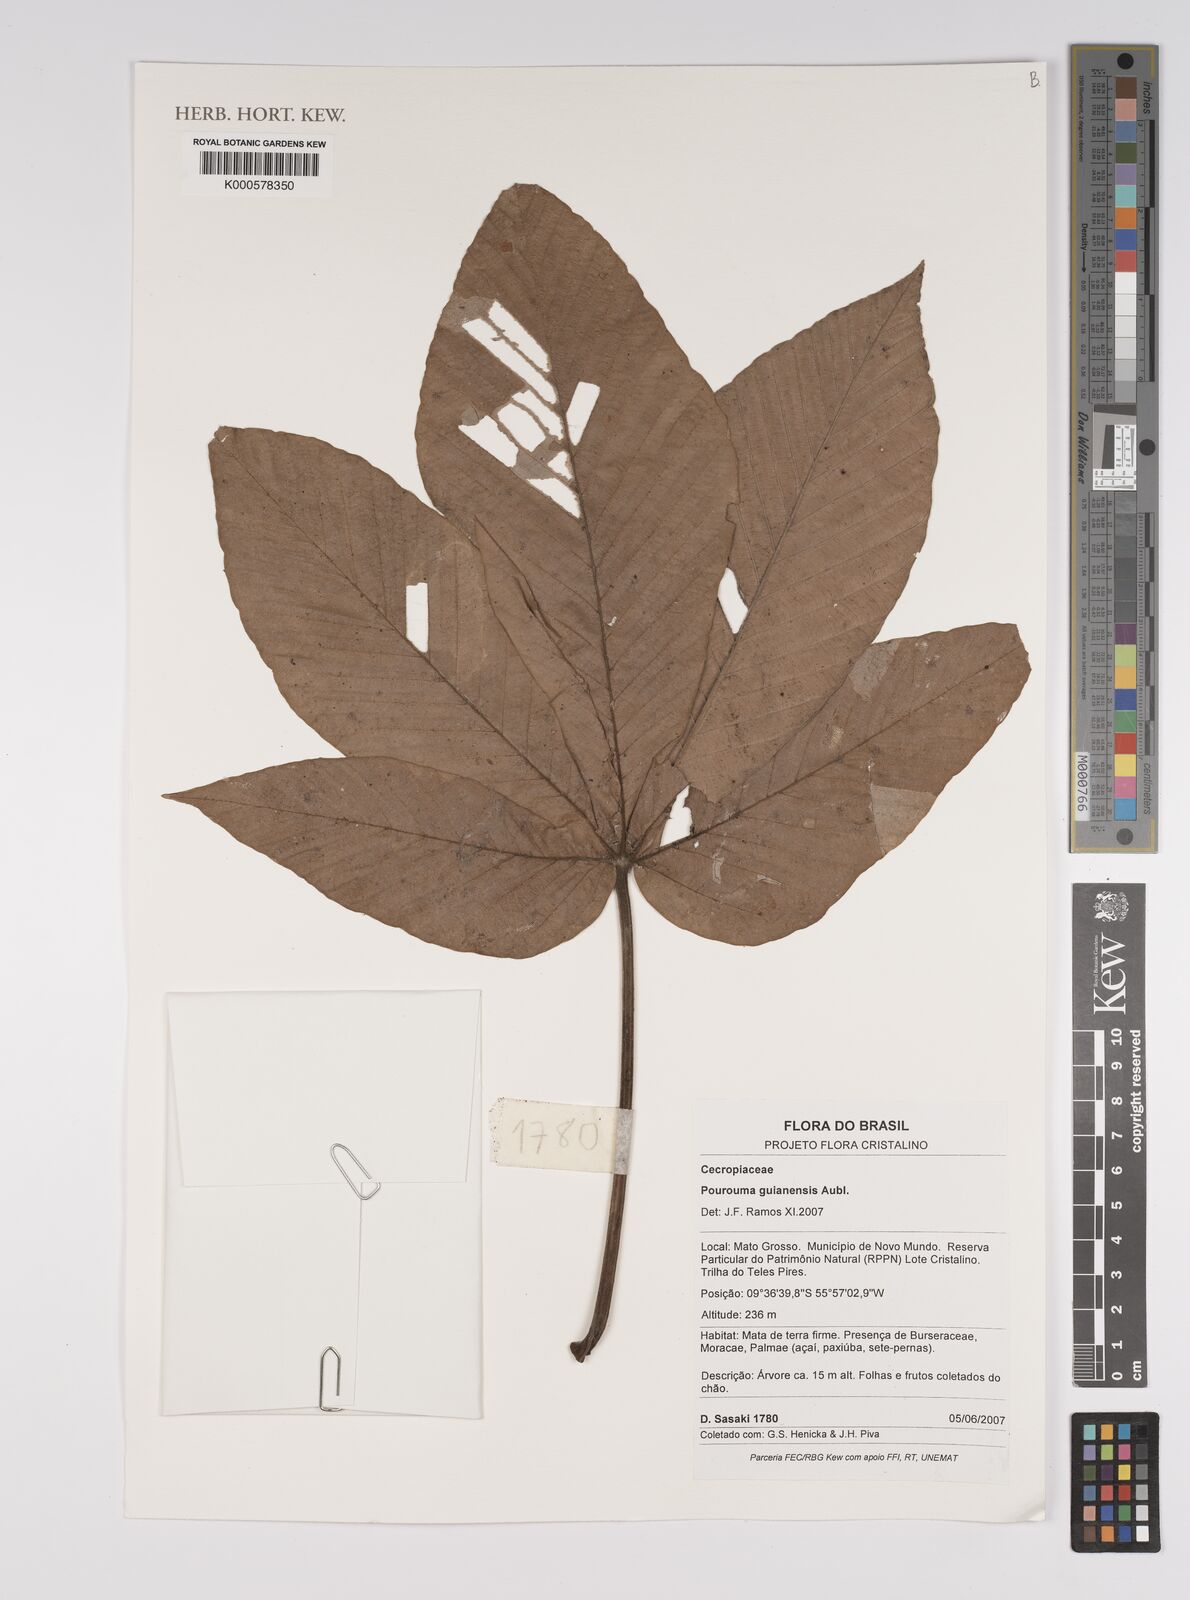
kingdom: Plantae
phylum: Tracheophyta
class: Magnoliopsida
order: Rosales
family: Urticaceae
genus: Pourouma
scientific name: Pourouma guianensis
